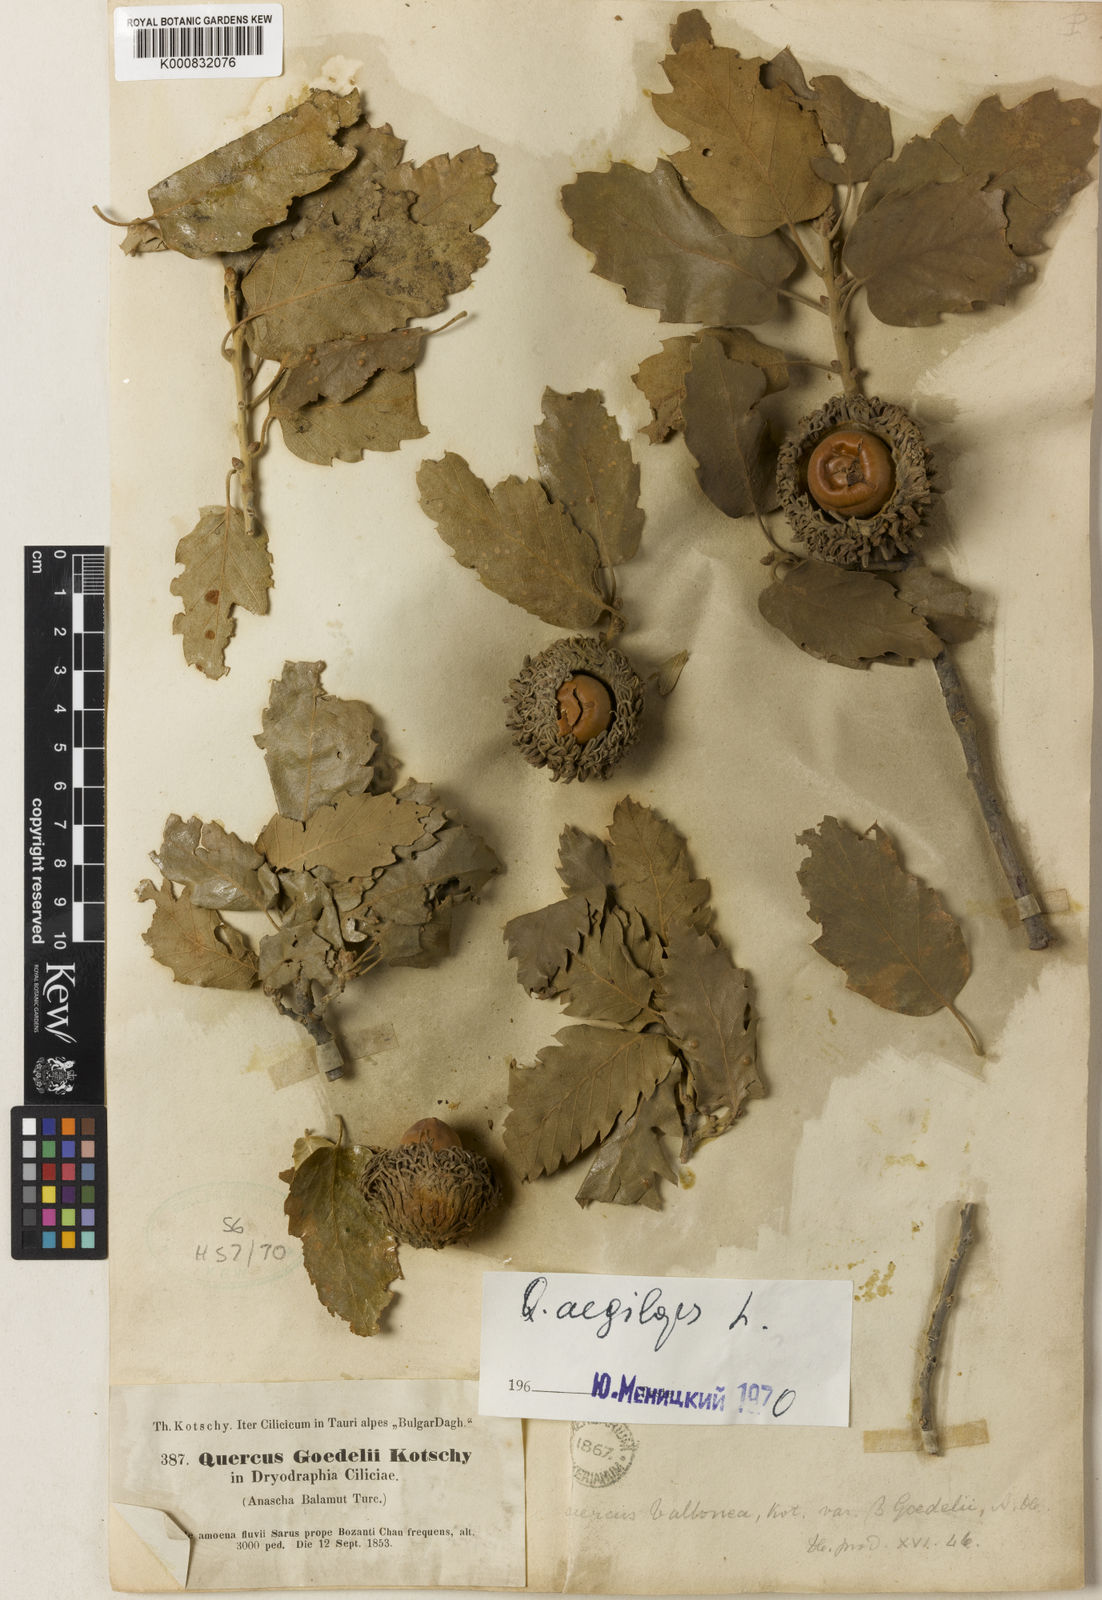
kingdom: Plantae
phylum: Tracheophyta
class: Magnoliopsida
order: Fagales
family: Fagaceae
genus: Quercus
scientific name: Quercus cerris
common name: Turkey oak
